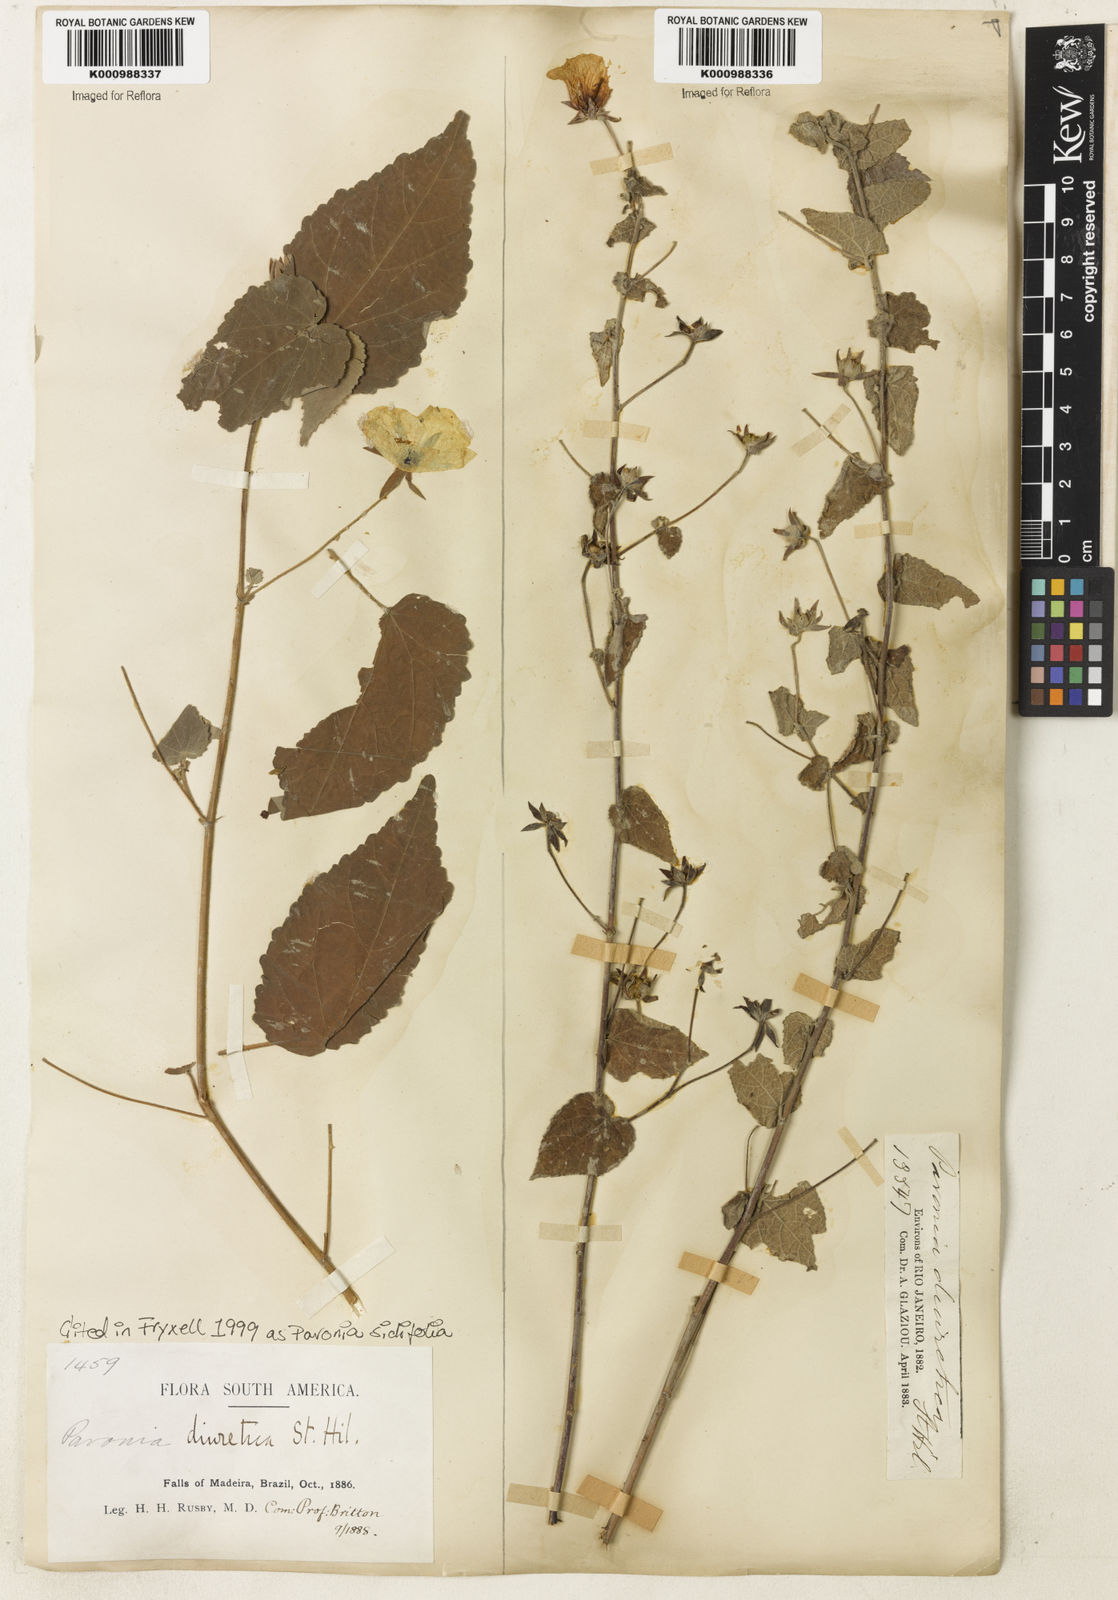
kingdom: Plantae
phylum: Tracheophyta
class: Magnoliopsida
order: Malvales
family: Malvaceae
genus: Pavonia
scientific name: Pavonia sidifolia
